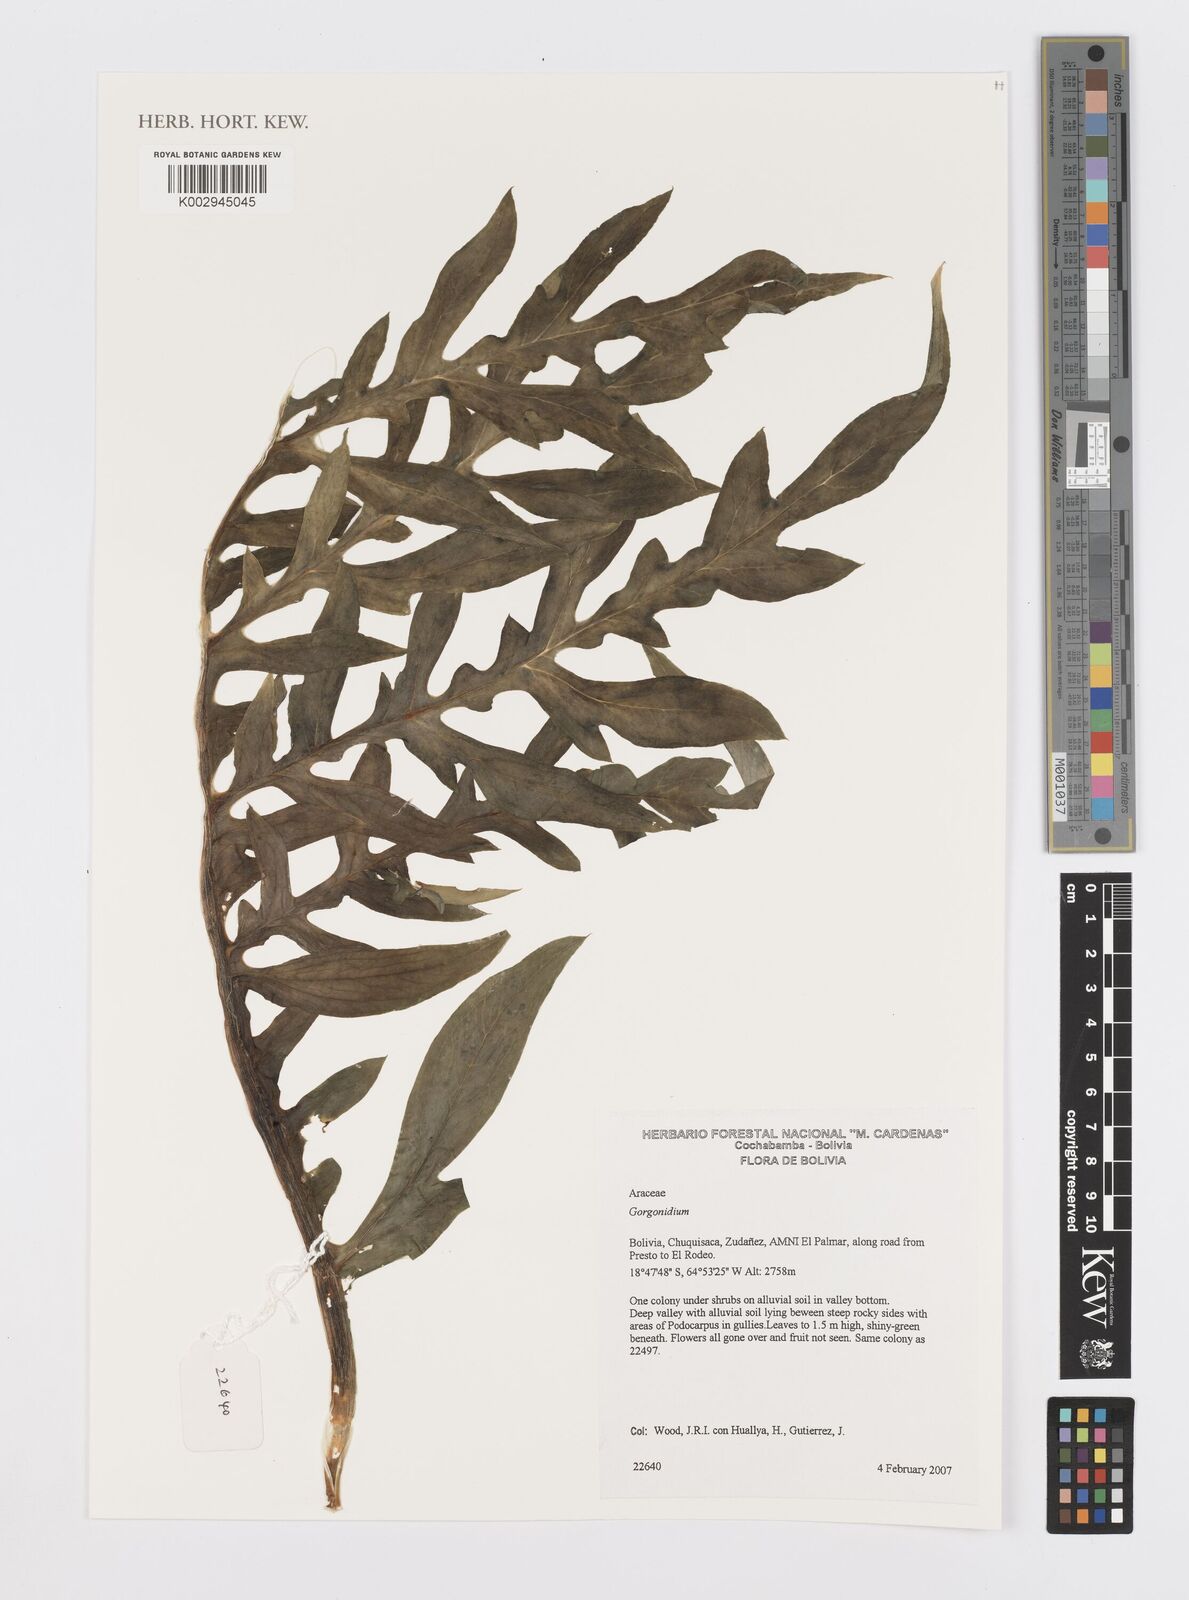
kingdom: Plantae
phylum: Tracheophyta
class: Liliopsida
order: Alismatales
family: Araceae
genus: Gorgonidium
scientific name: Gorgonidium
